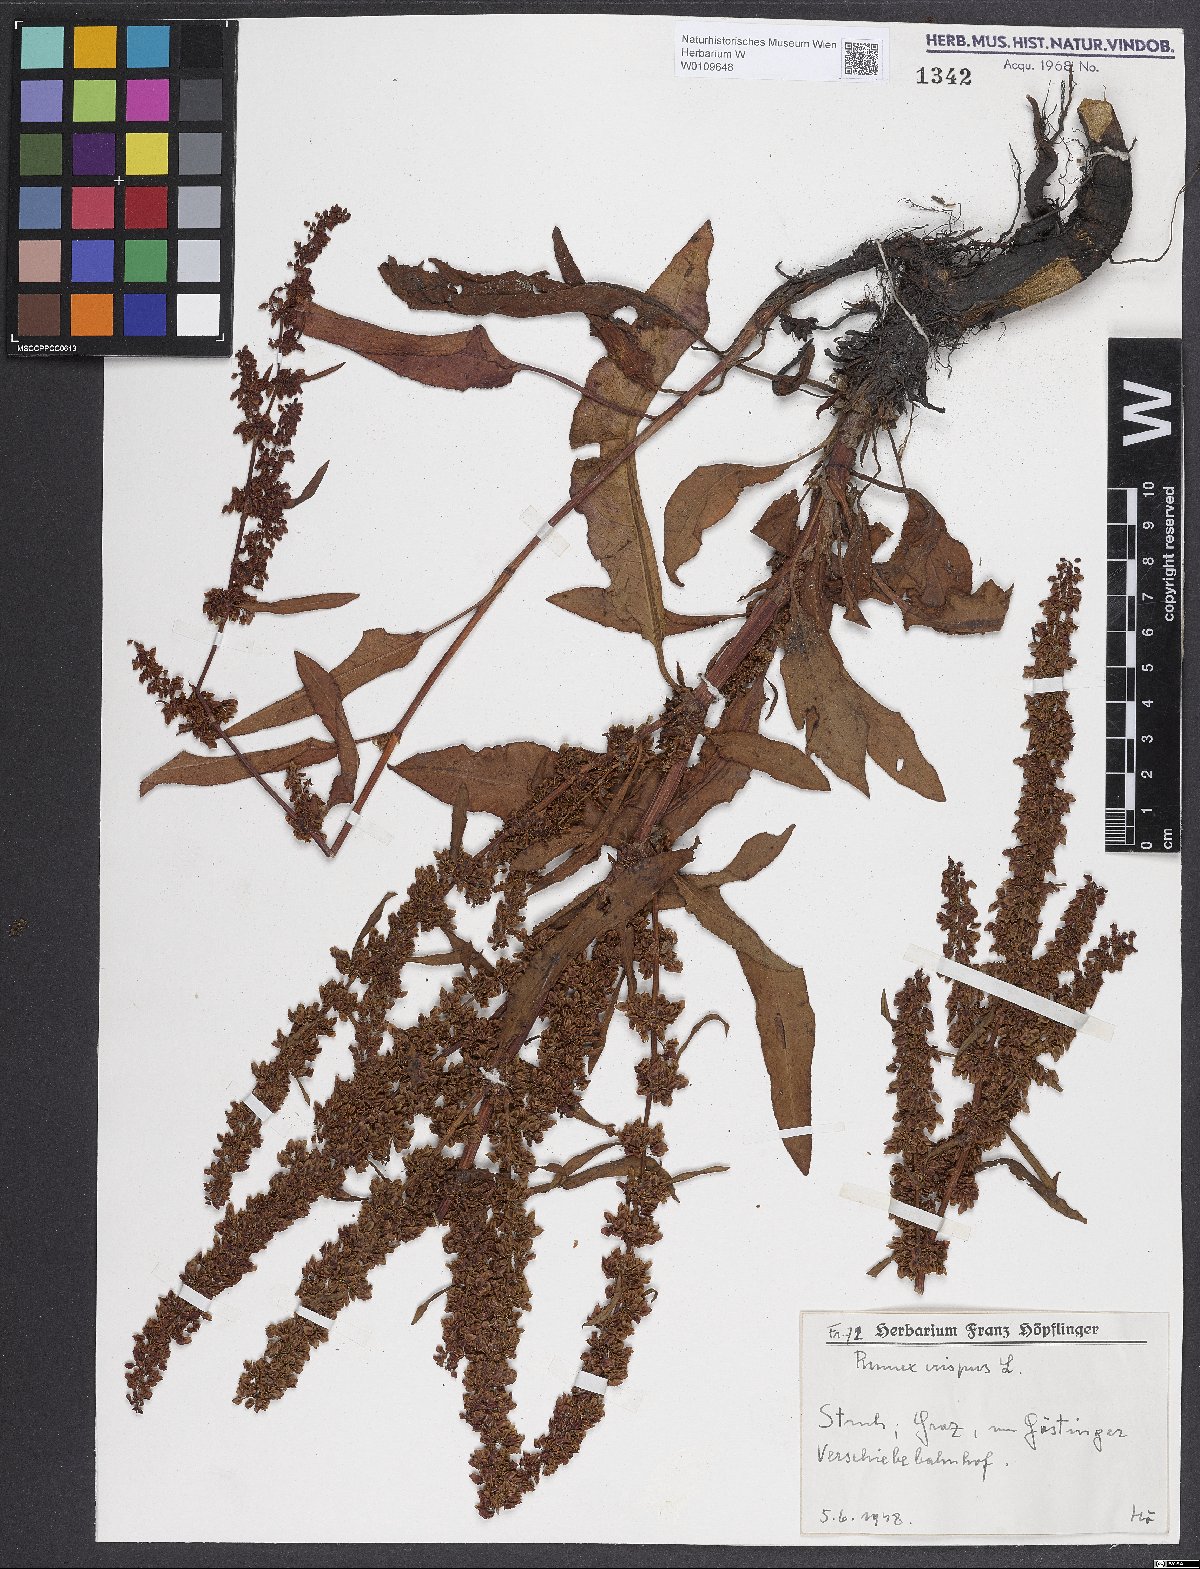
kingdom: Plantae
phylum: Tracheophyta
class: Magnoliopsida
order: Caryophyllales
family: Polygonaceae
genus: Rumex
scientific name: Rumex crispus
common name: Curled dock
